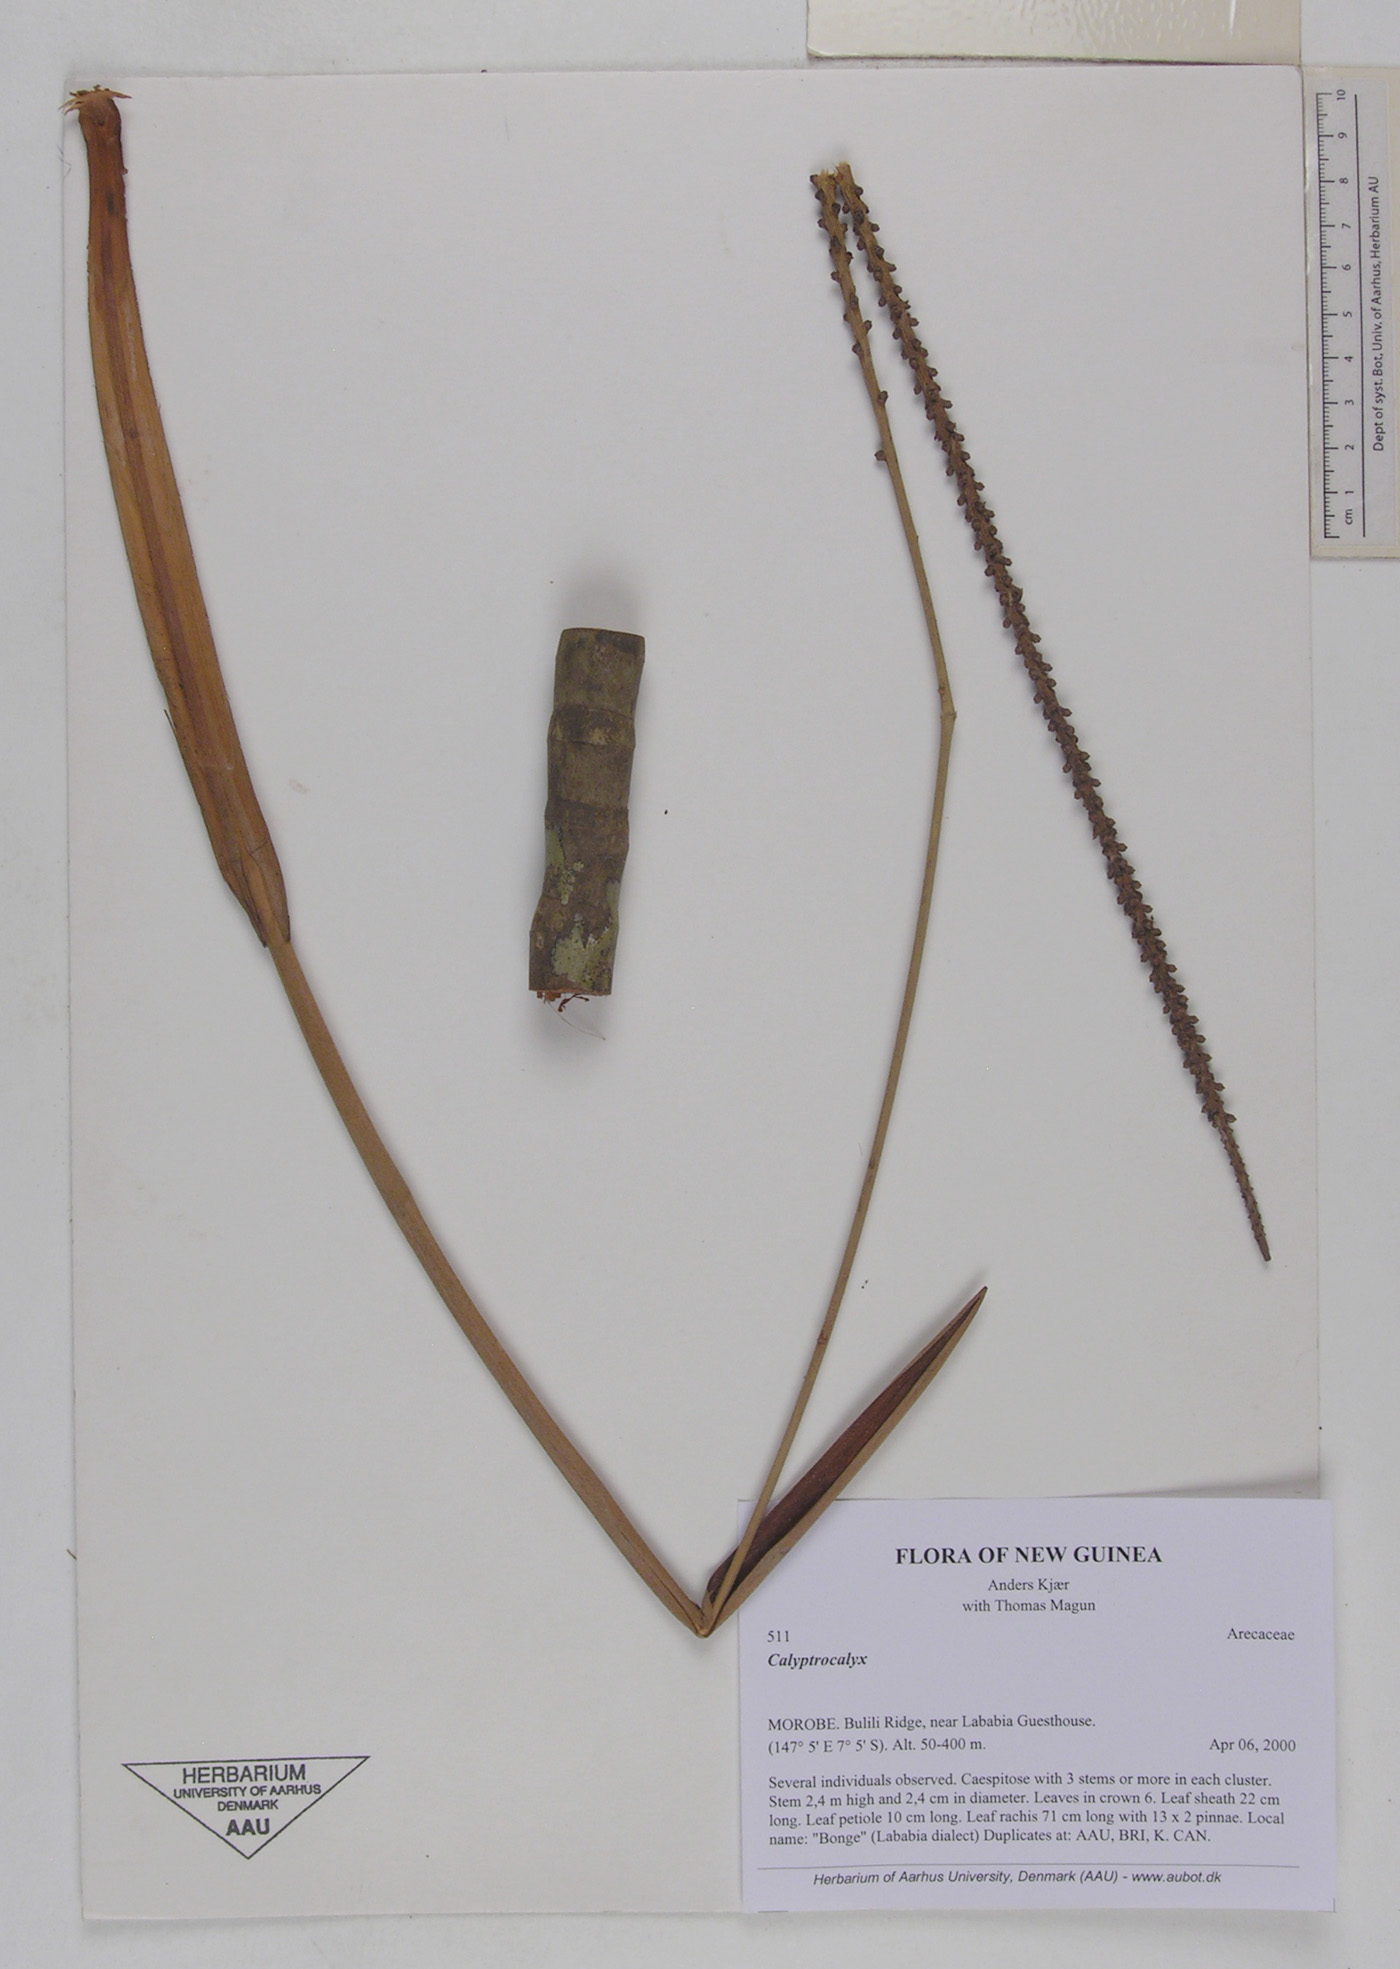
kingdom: Plantae
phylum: Tracheophyta
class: Liliopsida
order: Arecales
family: Arecaceae
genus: Calyptrocalyx
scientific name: Calyptrocalyx
